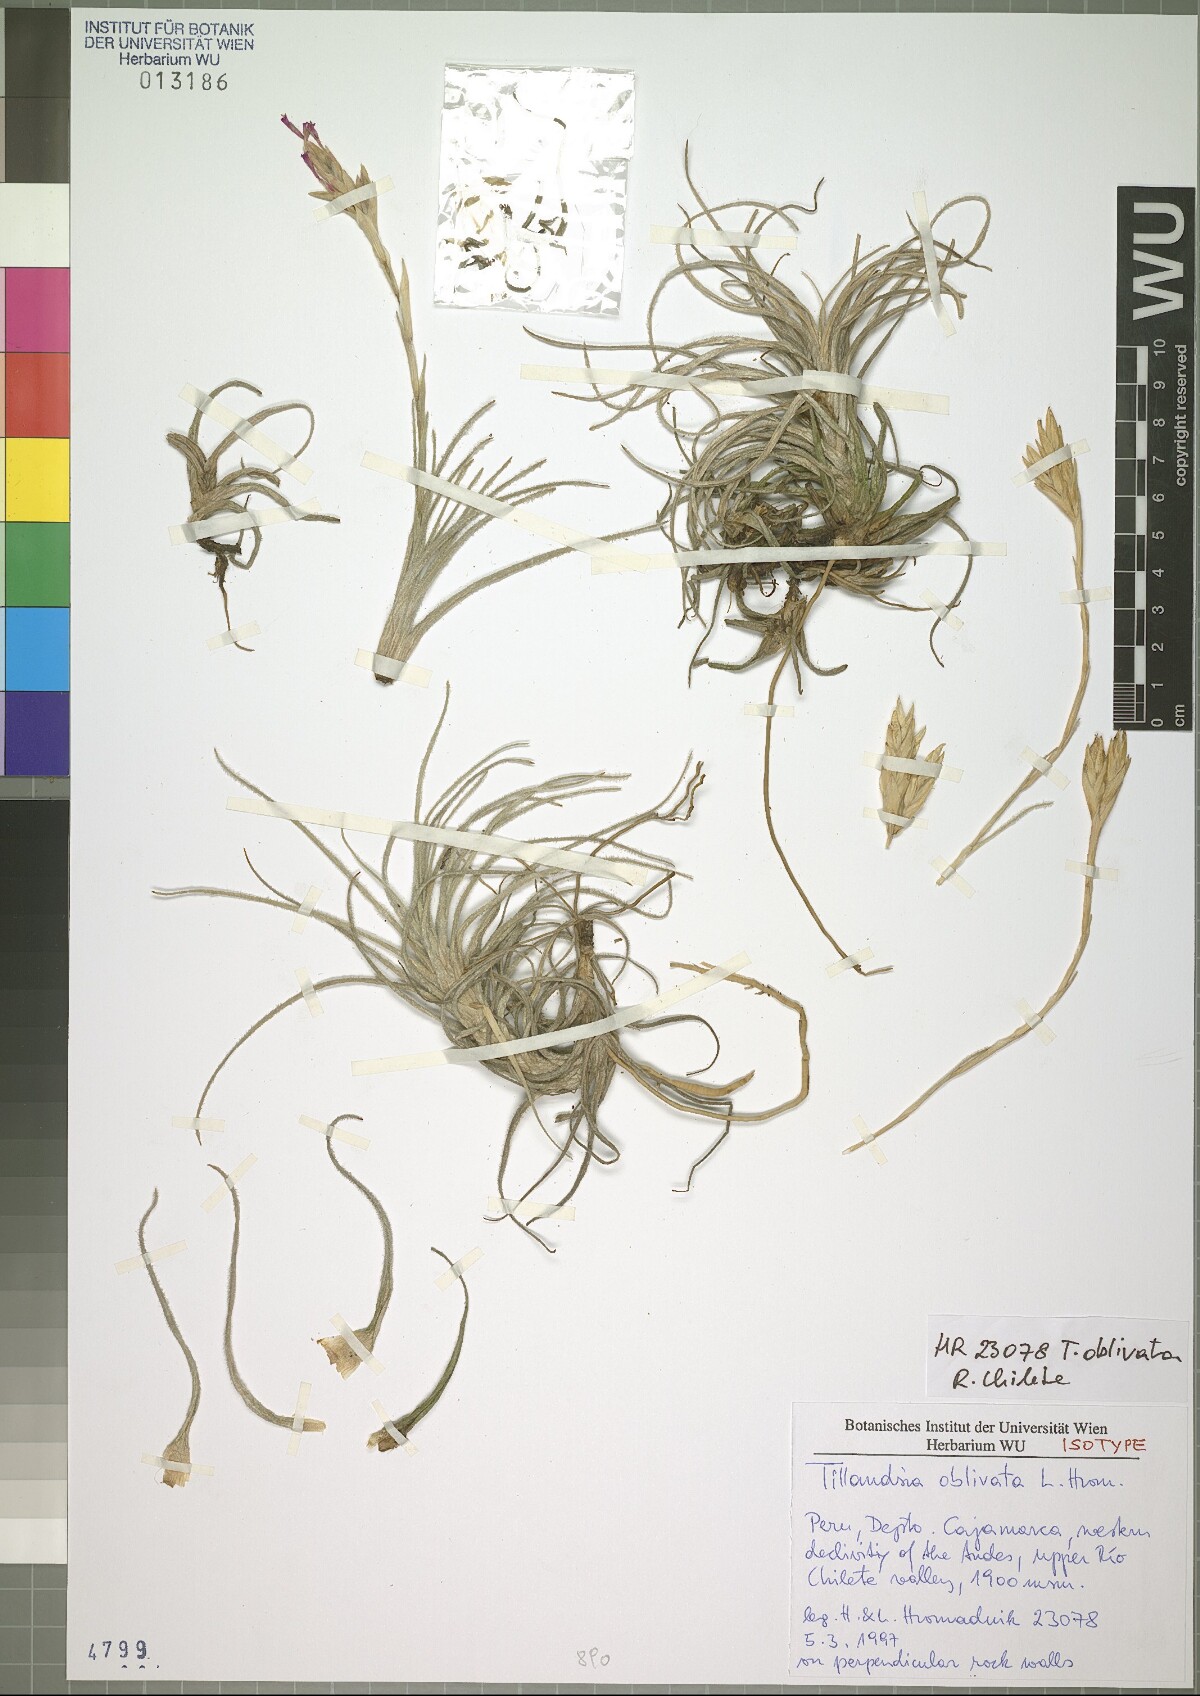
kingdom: Plantae
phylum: Tracheophyta
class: Liliopsida
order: Poales
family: Bromeliaceae
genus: Tillandsia
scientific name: Tillandsia oblivata
